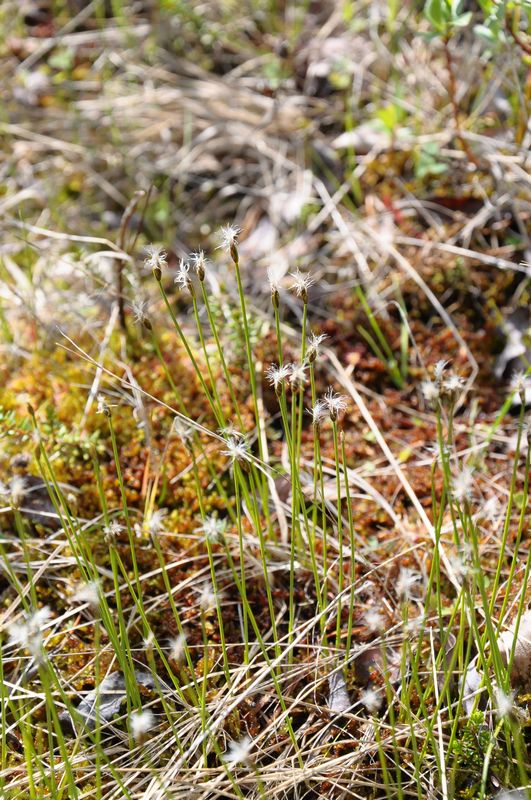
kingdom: Plantae
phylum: Tracheophyta
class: Liliopsida
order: Poales
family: Cyperaceae
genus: Trichophorum
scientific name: Trichophorum alpinum
